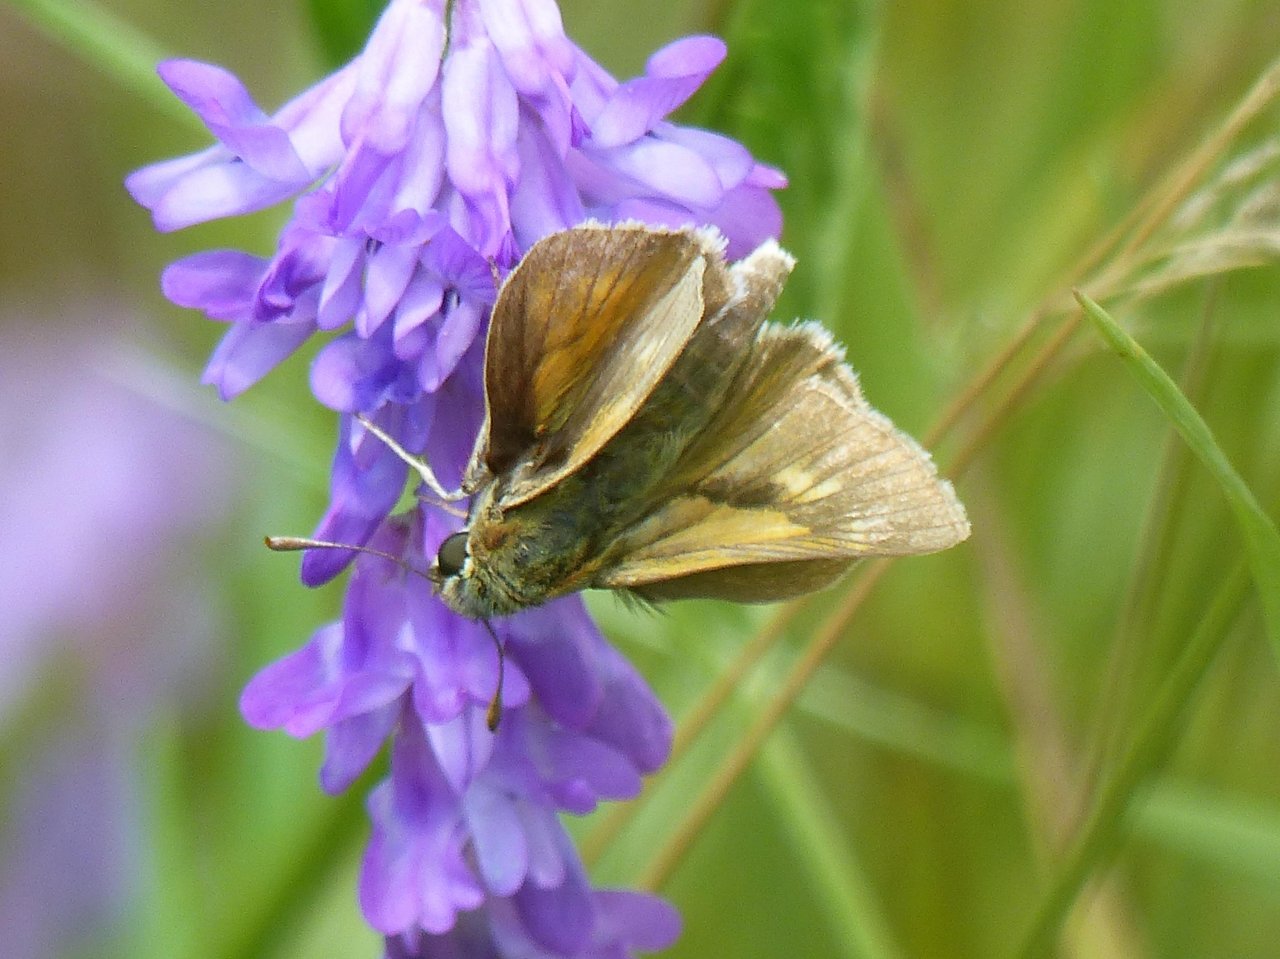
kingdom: Animalia
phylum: Arthropoda
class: Insecta
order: Lepidoptera
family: Hesperiidae
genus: Polites
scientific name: Polites
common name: Crossline Skipper
